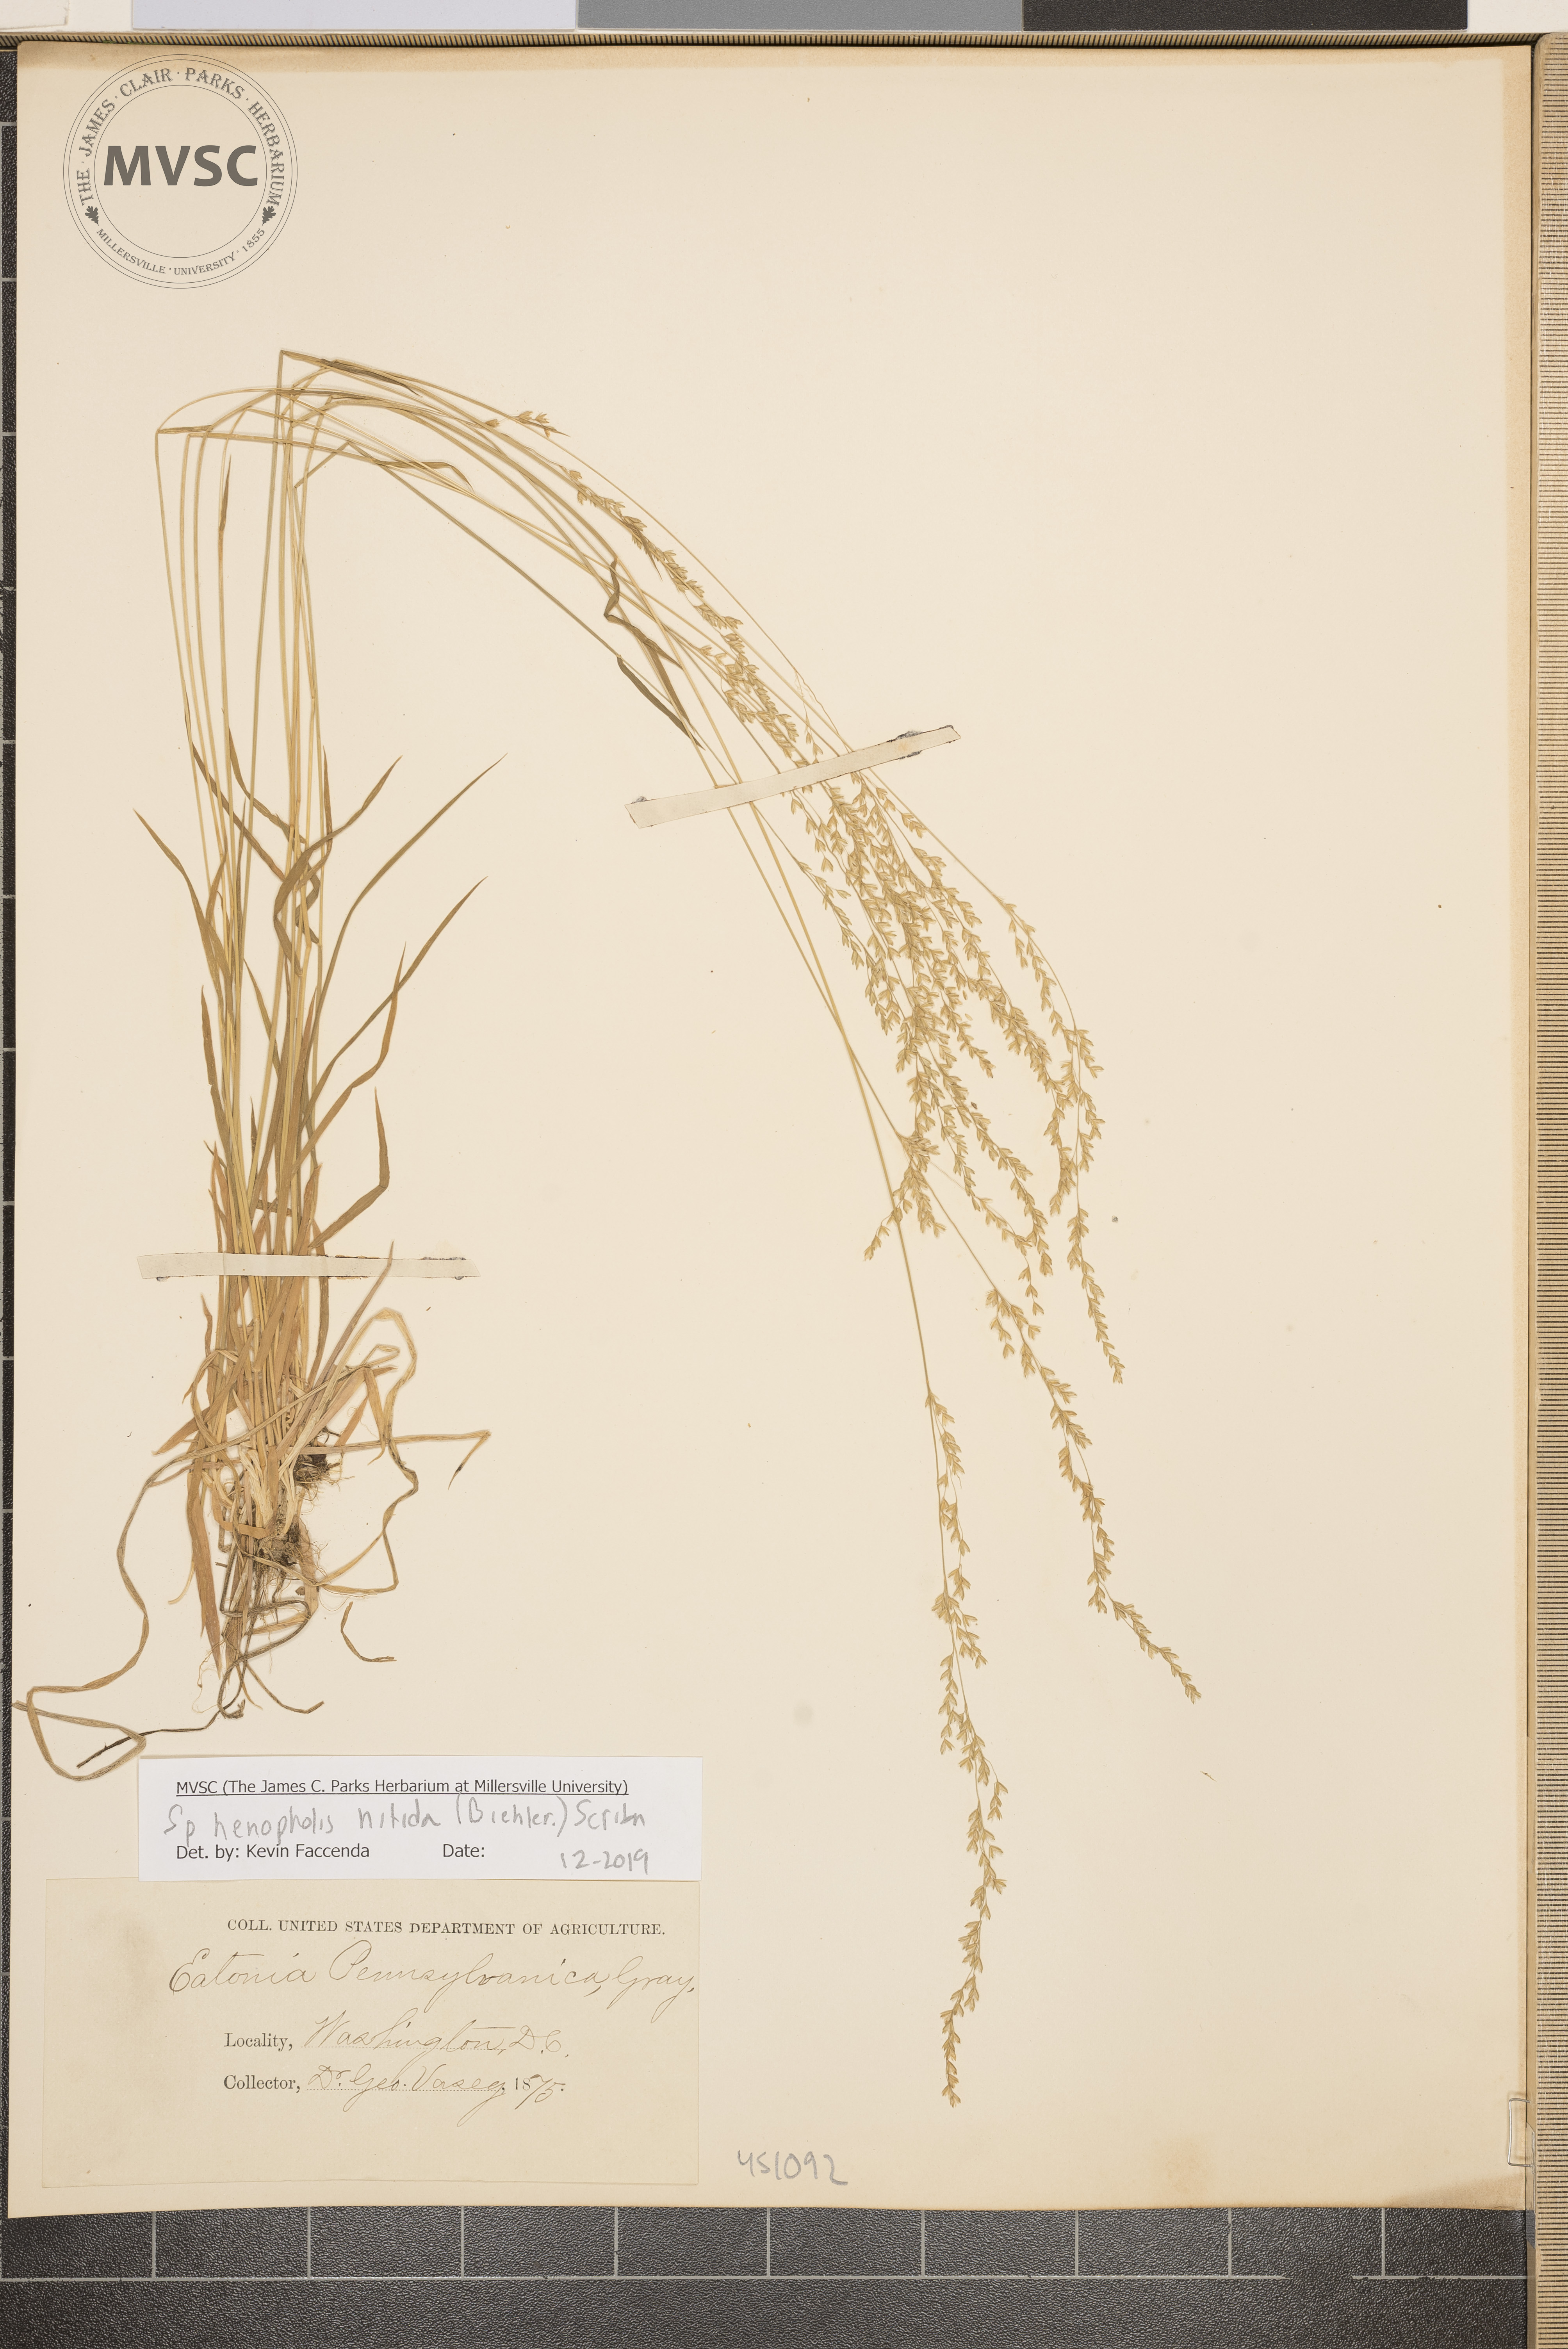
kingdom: Plantae
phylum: Tracheophyta
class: Liliopsida
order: Poales
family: Poaceae
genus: Sphenopholis
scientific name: Sphenopholis nitida
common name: Shiny wedgegrass
